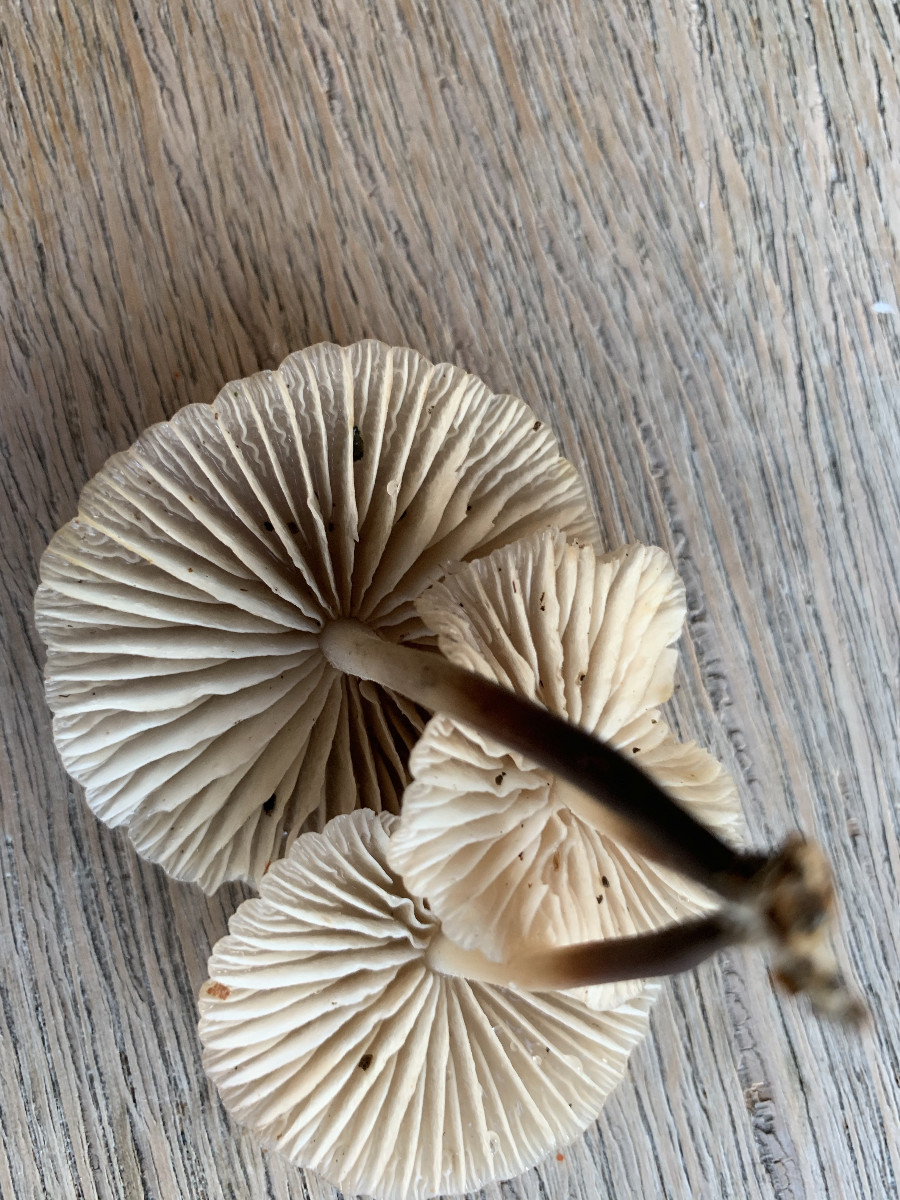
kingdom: Fungi
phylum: Basidiomycota
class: Agaricomycetes
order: Agaricales
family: Marasmiaceae
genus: Marasmius
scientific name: Marasmius wynneae
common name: hvælvet bruskhat
